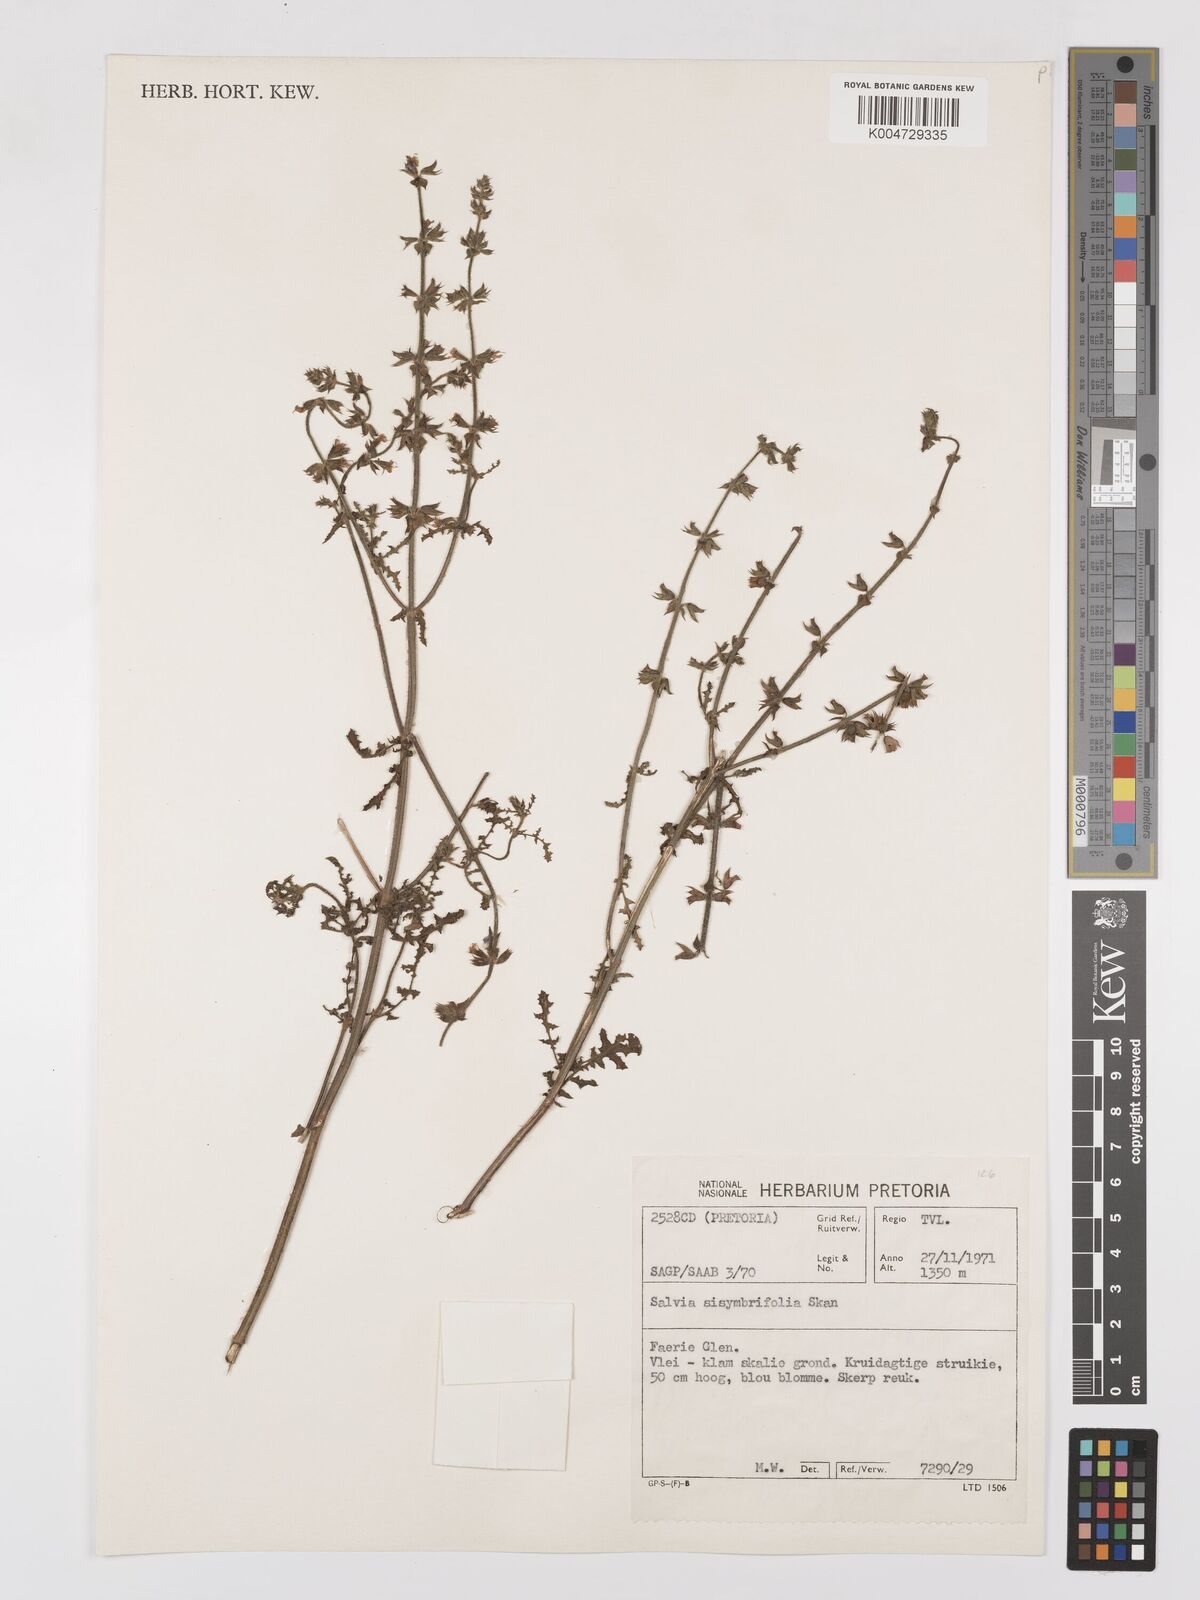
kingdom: Plantae
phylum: Tracheophyta
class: Magnoliopsida
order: Lamiales
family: Lamiaceae
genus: Salvia
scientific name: Salvia runcinata
